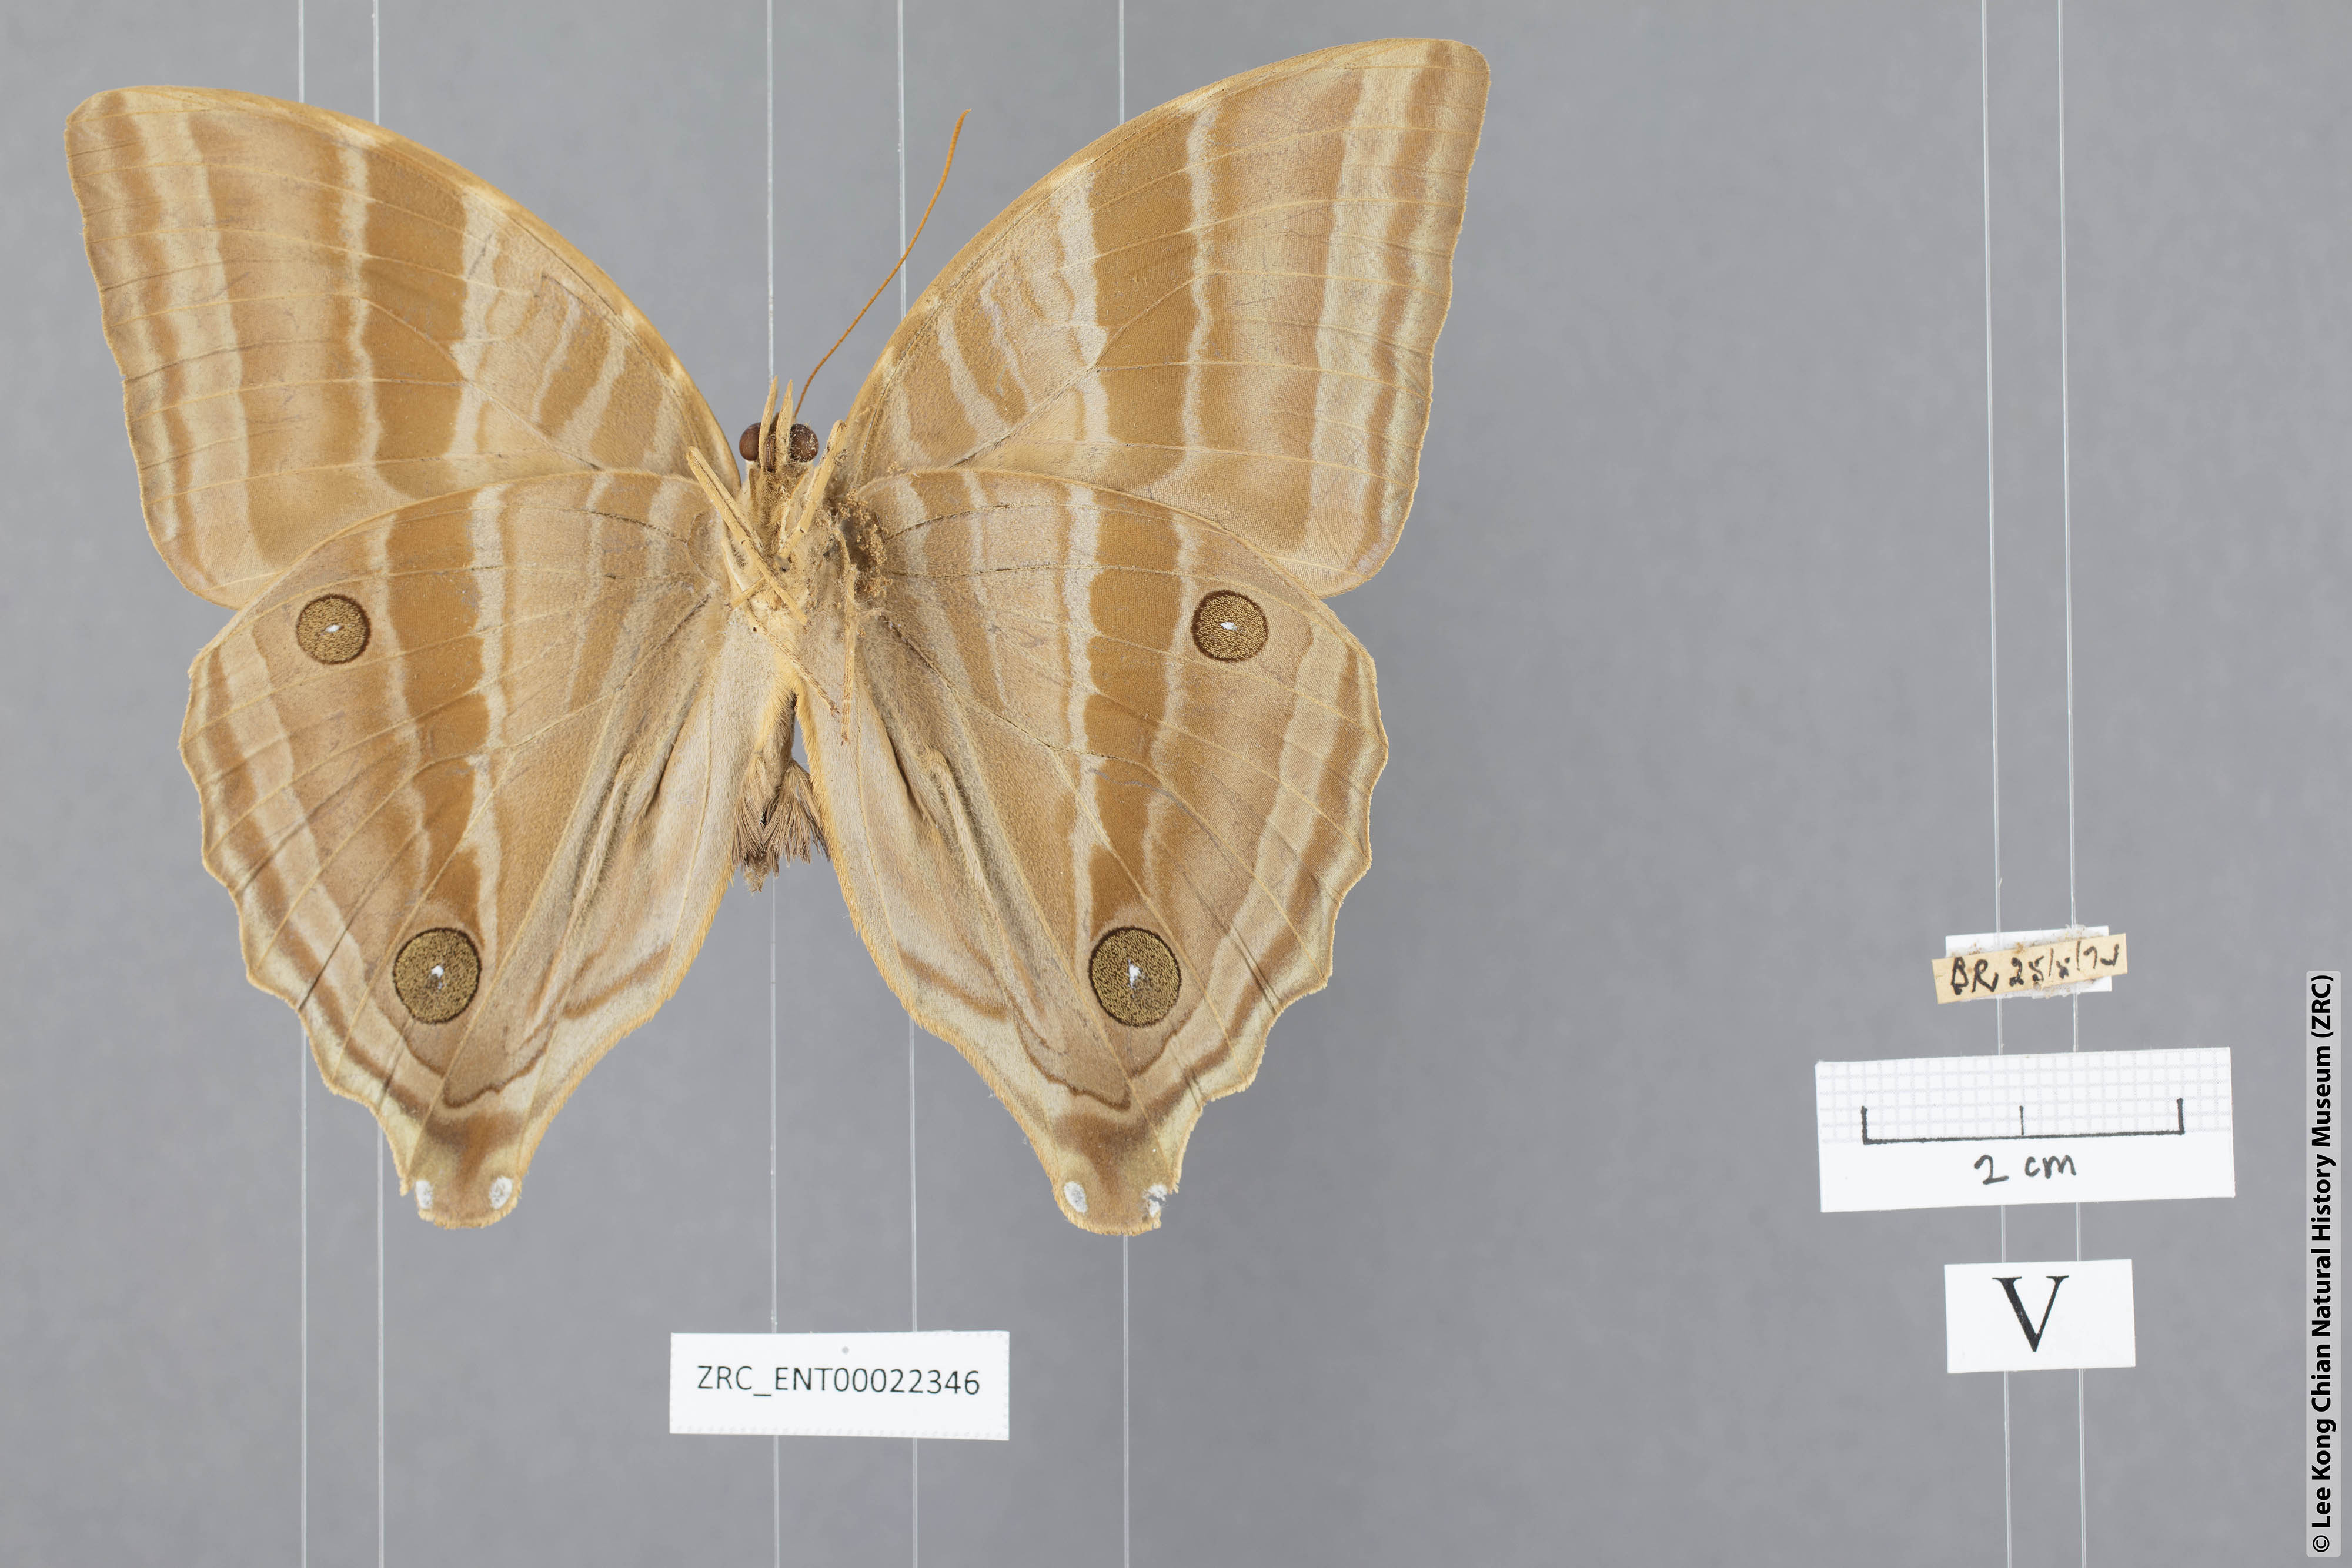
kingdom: Animalia
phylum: Arthropoda
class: Insecta
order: Lepidoptera
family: Nymphalidae
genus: Amathusia
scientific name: Amathusia phidippus
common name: Palm king
